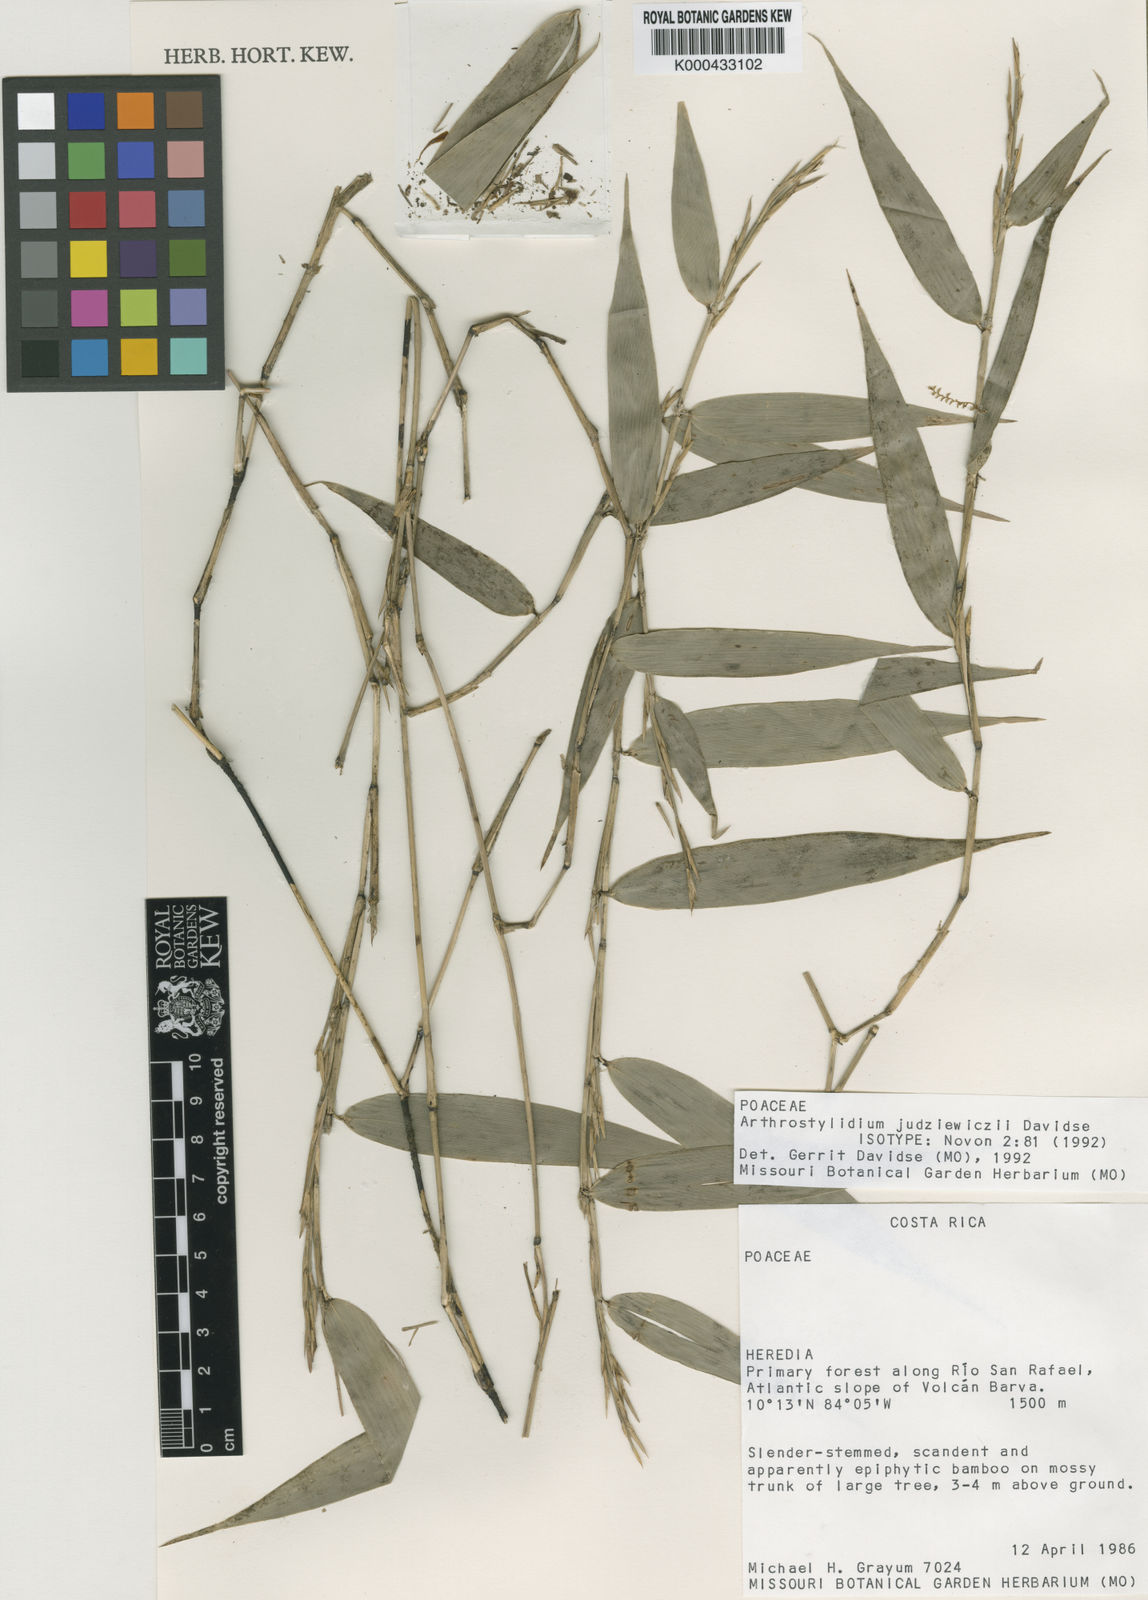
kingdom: Plantae
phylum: Tracheophyta
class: Liliopsida
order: Poales
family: Poaceae
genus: Arthrostylidium
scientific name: Arthrostylidium judziewiczii
